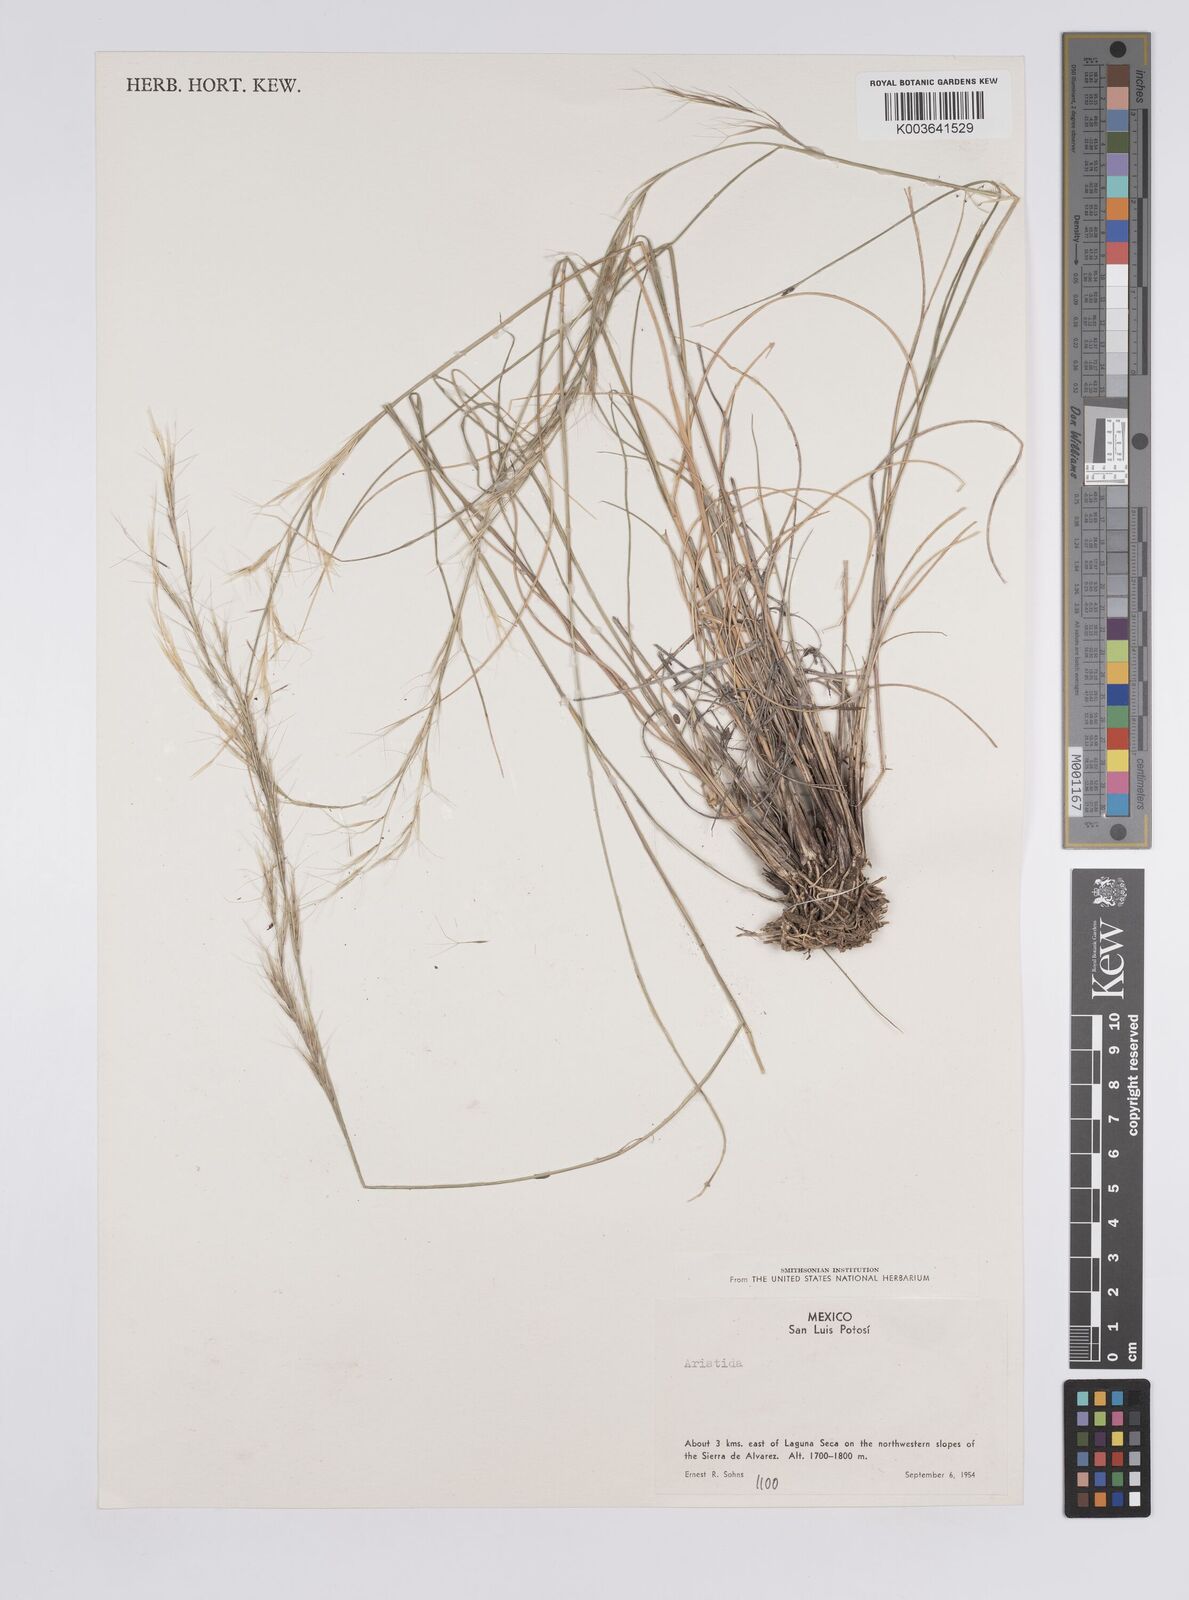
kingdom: Plantae
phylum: Tracheophyta
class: Liliopsida
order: Poales
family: Poaceae
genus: Aristida
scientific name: Aristida
